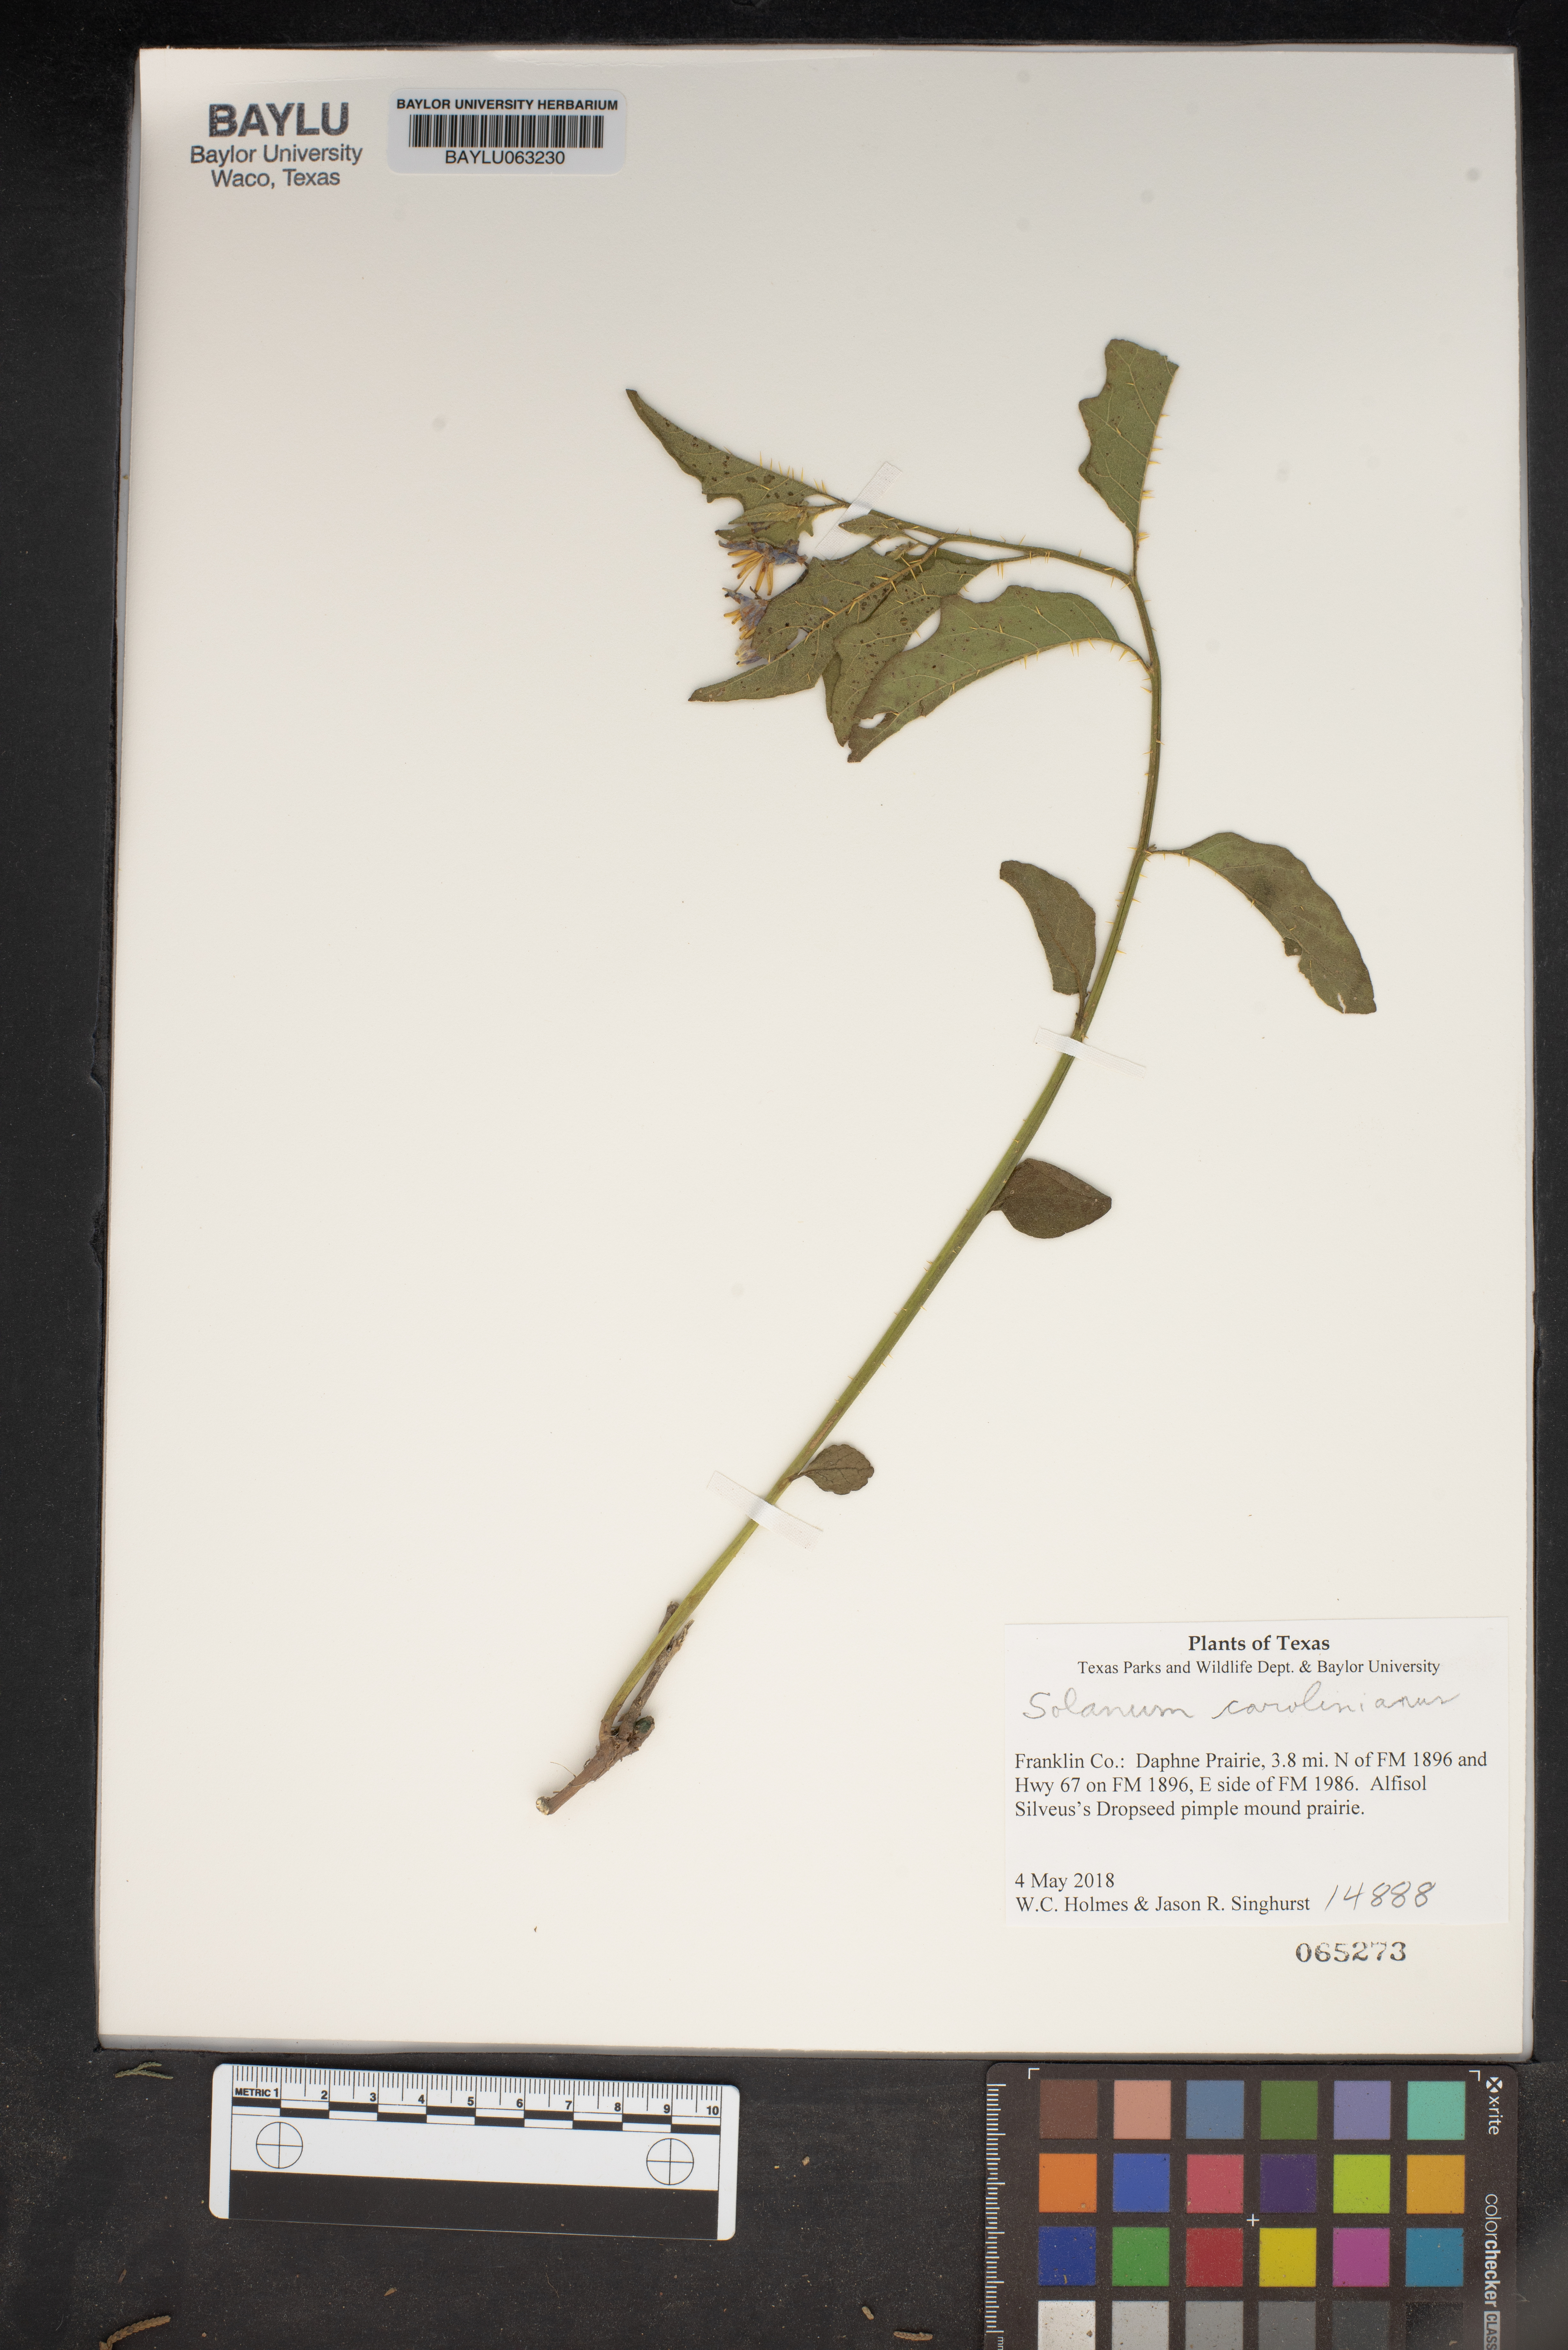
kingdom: Plantae
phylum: Tracheophyta
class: Magnoliopsida
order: Solanales
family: Solanaceae
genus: Solanum
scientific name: Solanum houstonii
